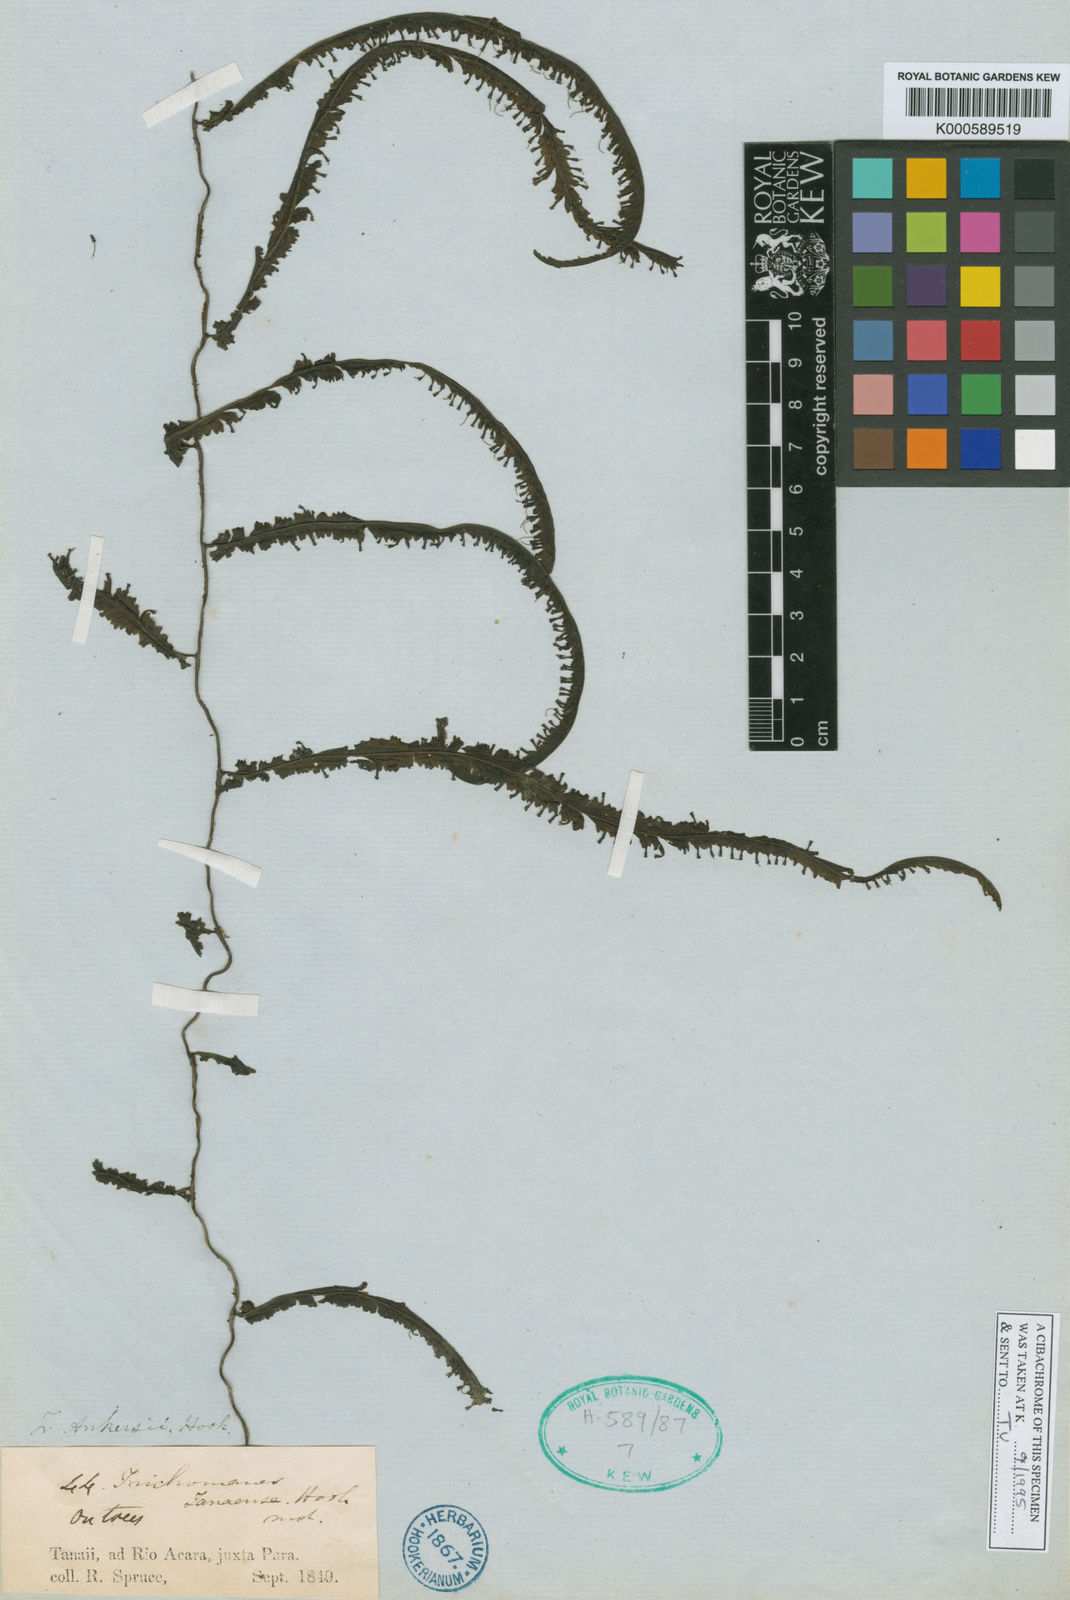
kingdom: Plantae
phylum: Tracheophyta
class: Polypodiopsida
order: Hymenophyllales
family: Hymenophyllaceae
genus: Trichomanes
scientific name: Trichomanes
